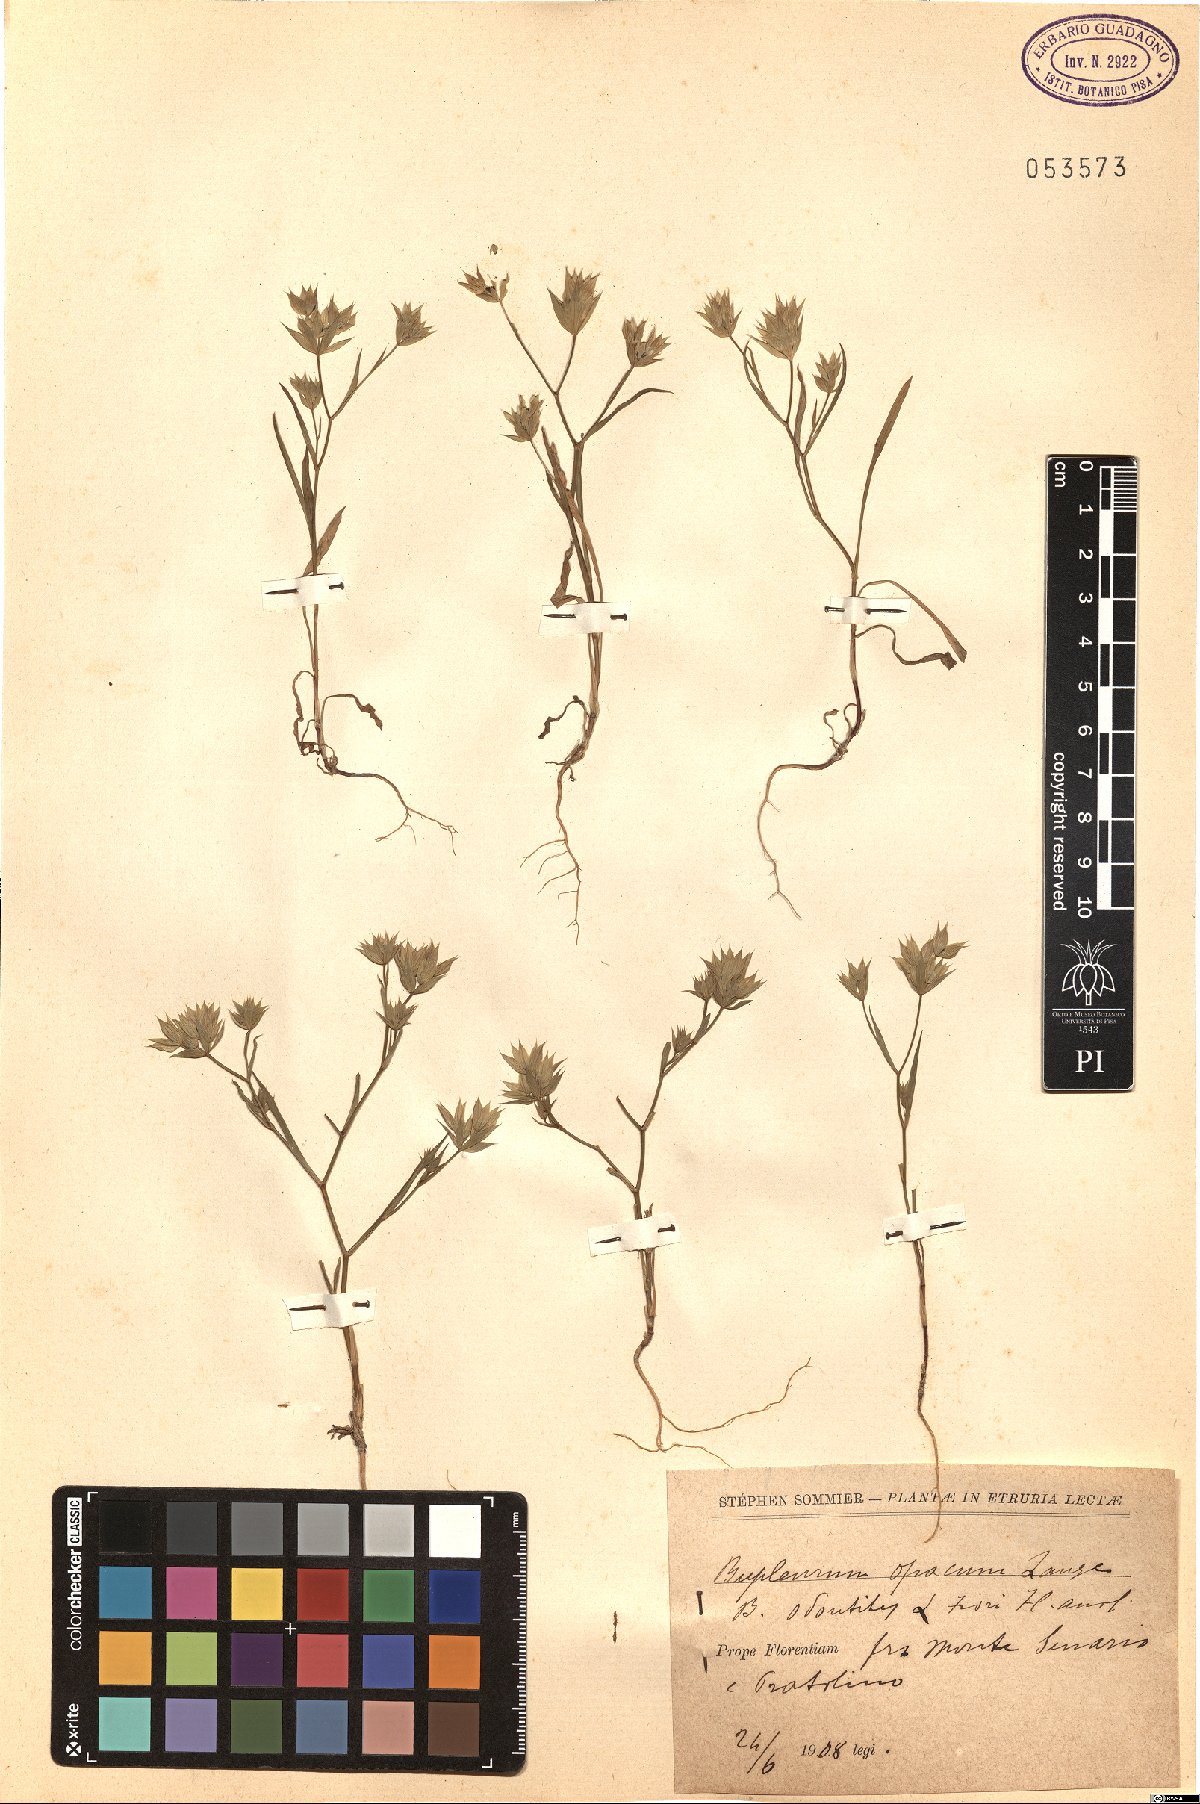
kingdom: Plantae
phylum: Tracheophyta
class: Magnoliopsida
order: Apiales
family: Apiaceae
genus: Bupleurum
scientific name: Bupleurum baldense
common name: Small hare's-ear
